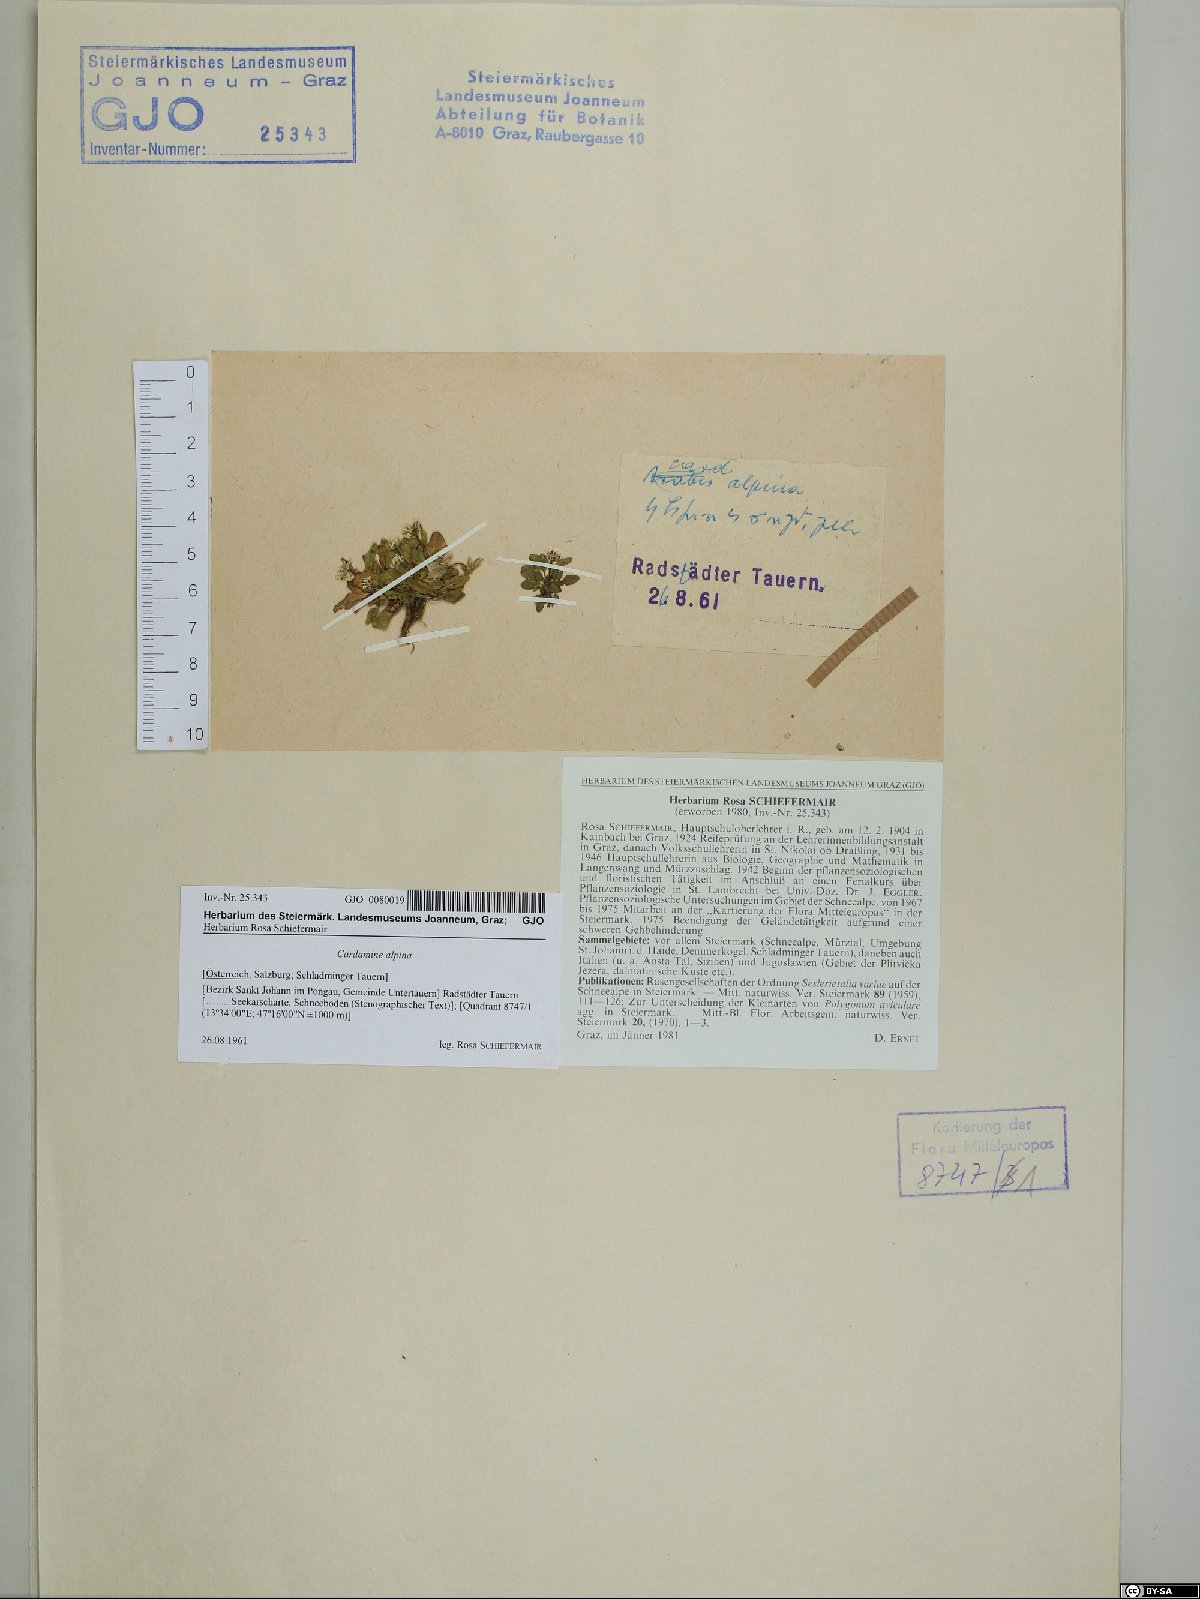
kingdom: Plantae
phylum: Tracheophyta
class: Magnoliopsida
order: Brassicales
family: Brassicaceae
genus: Cardamine
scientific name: Cardamine bellidifolia
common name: Alpine bittercress
